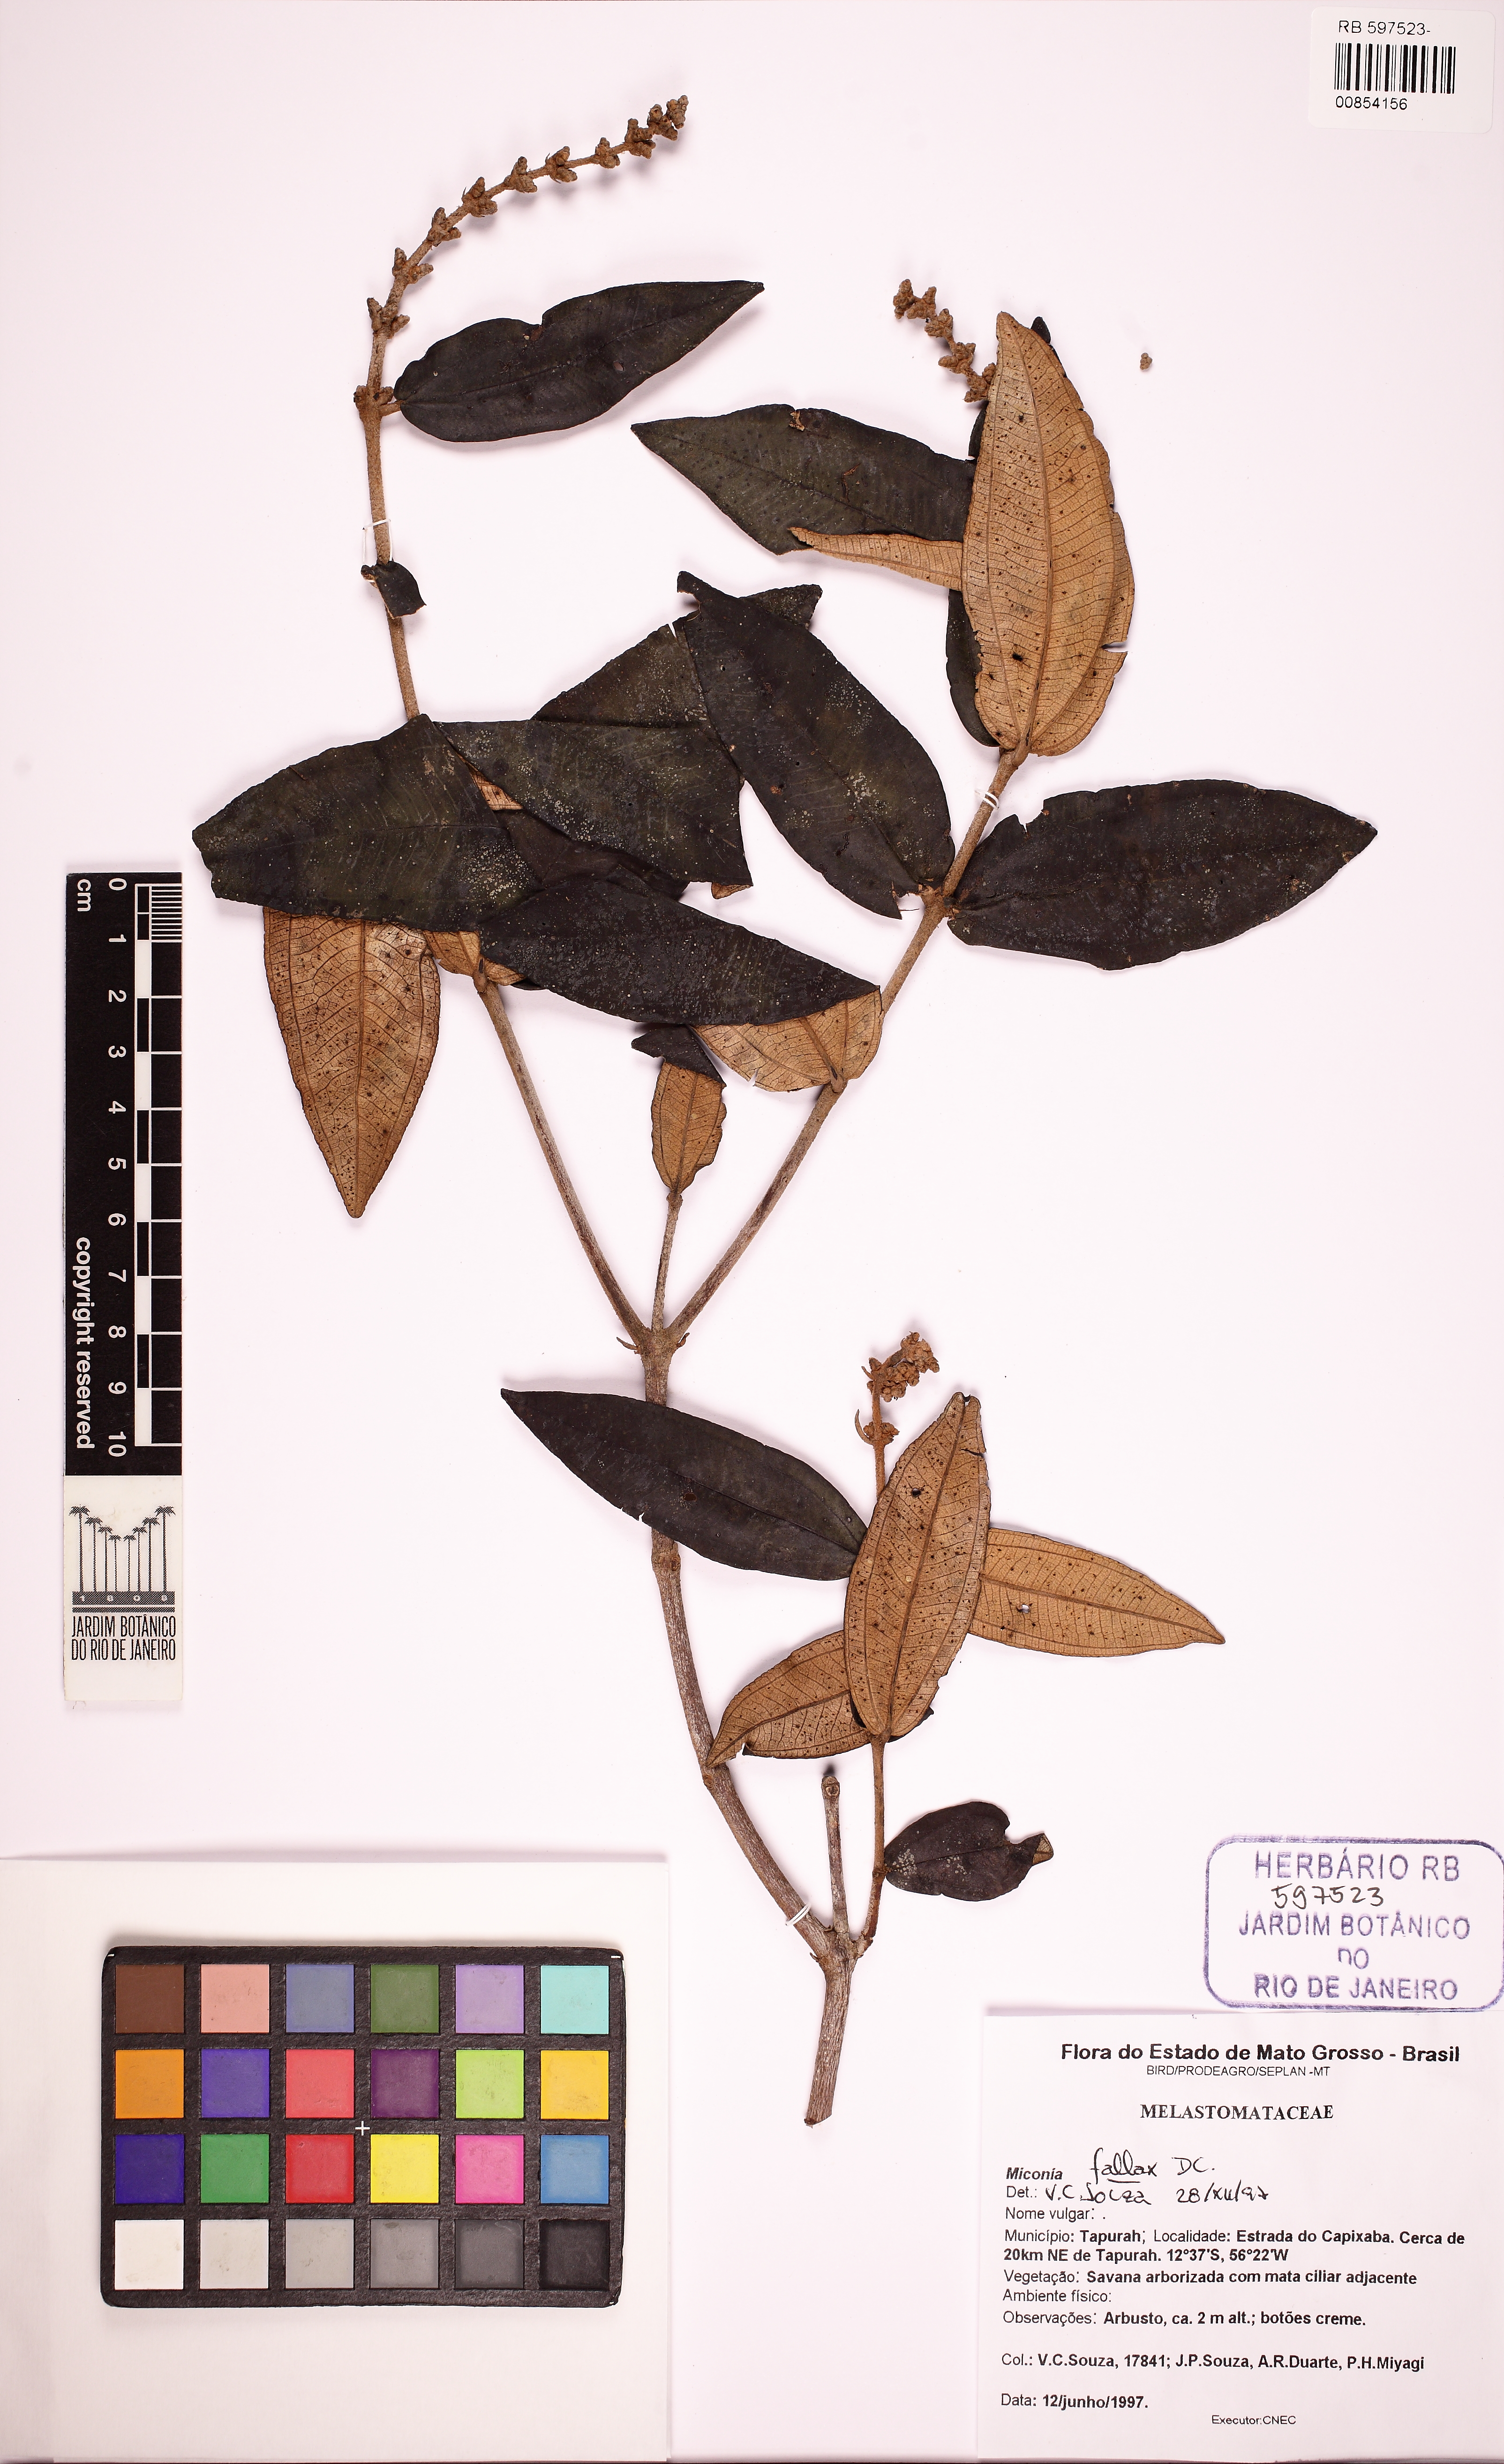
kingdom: Plantae
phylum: Tracheophyta
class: Magnoliopsida
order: Myrtales
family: Melastomataceae
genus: Miconia
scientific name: Miconia fallax
